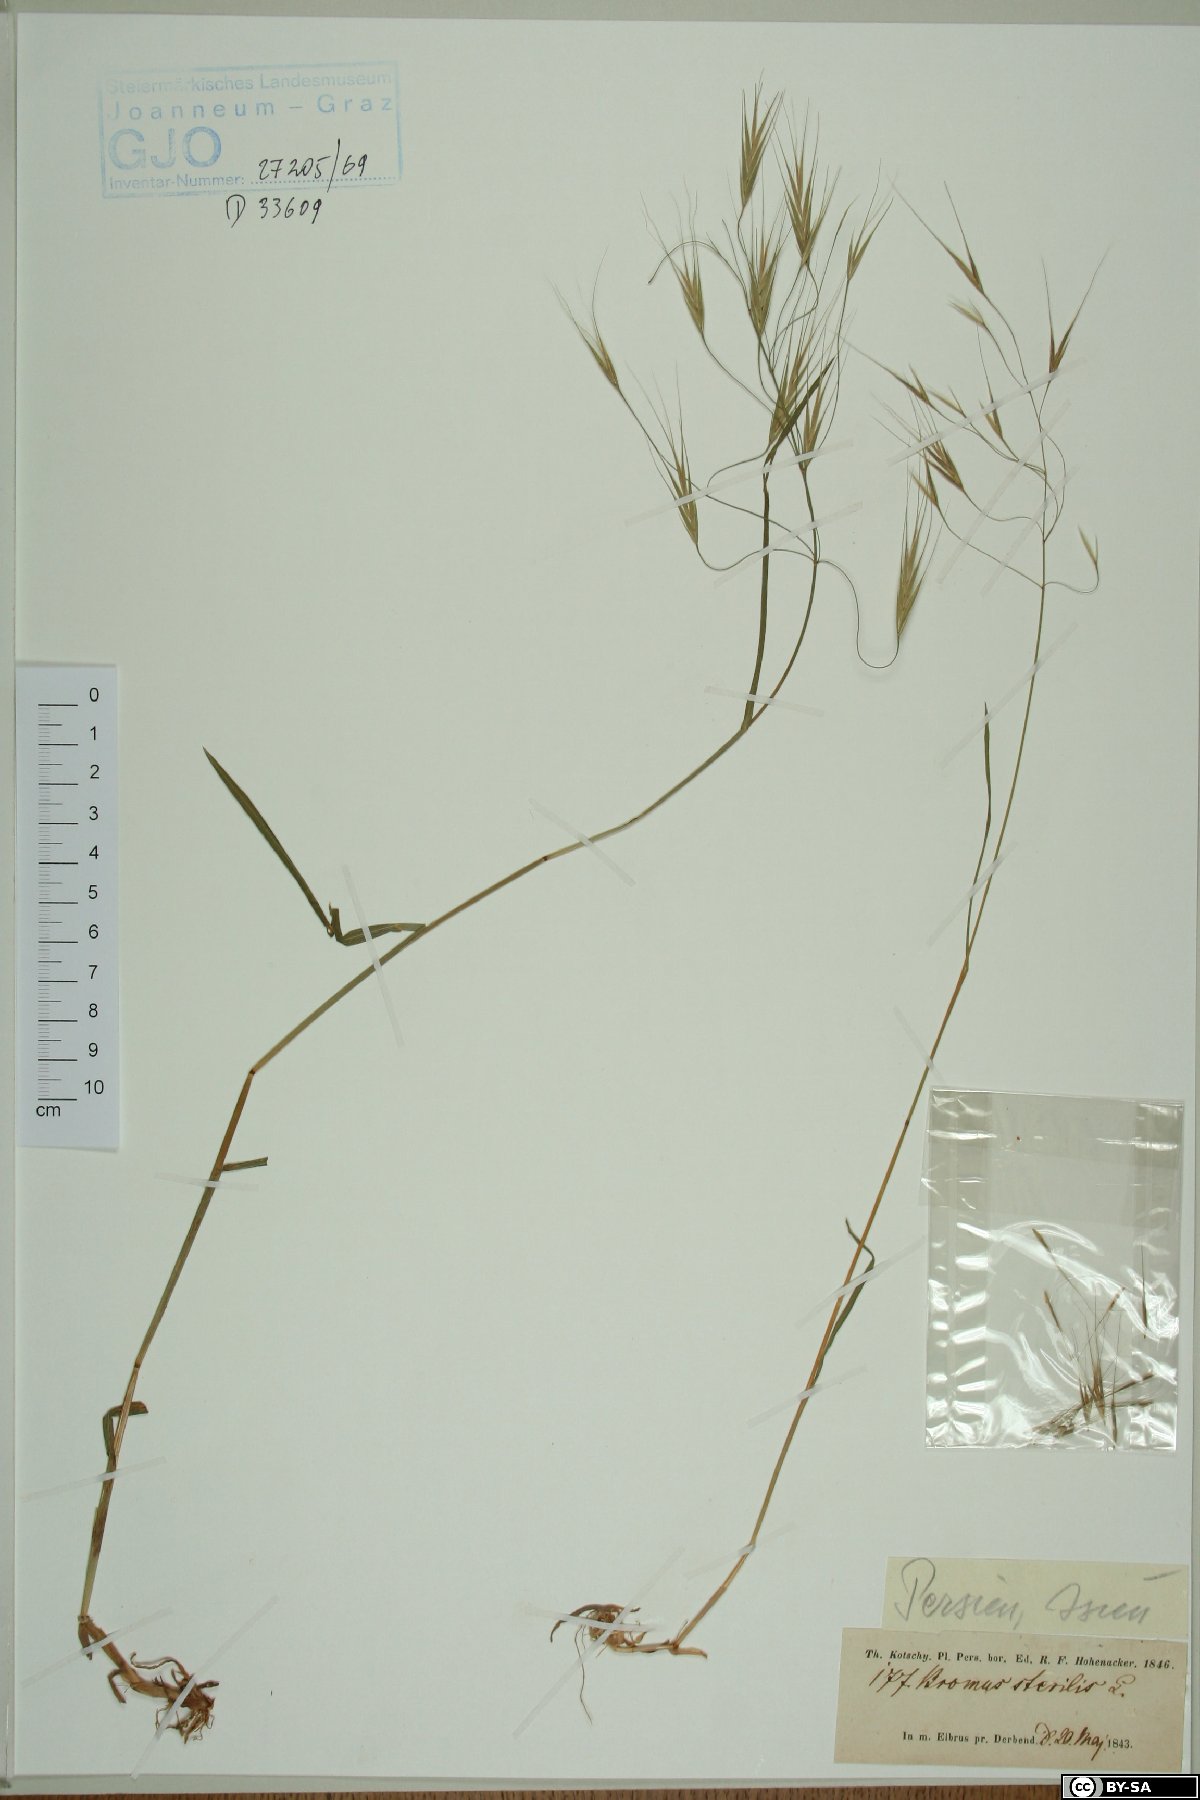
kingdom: Plantae
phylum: Tracheophyta
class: Liliopsida
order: Poales
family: Poaceae
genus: Bromus
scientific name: Bromus sterilis
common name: Poverty brome
